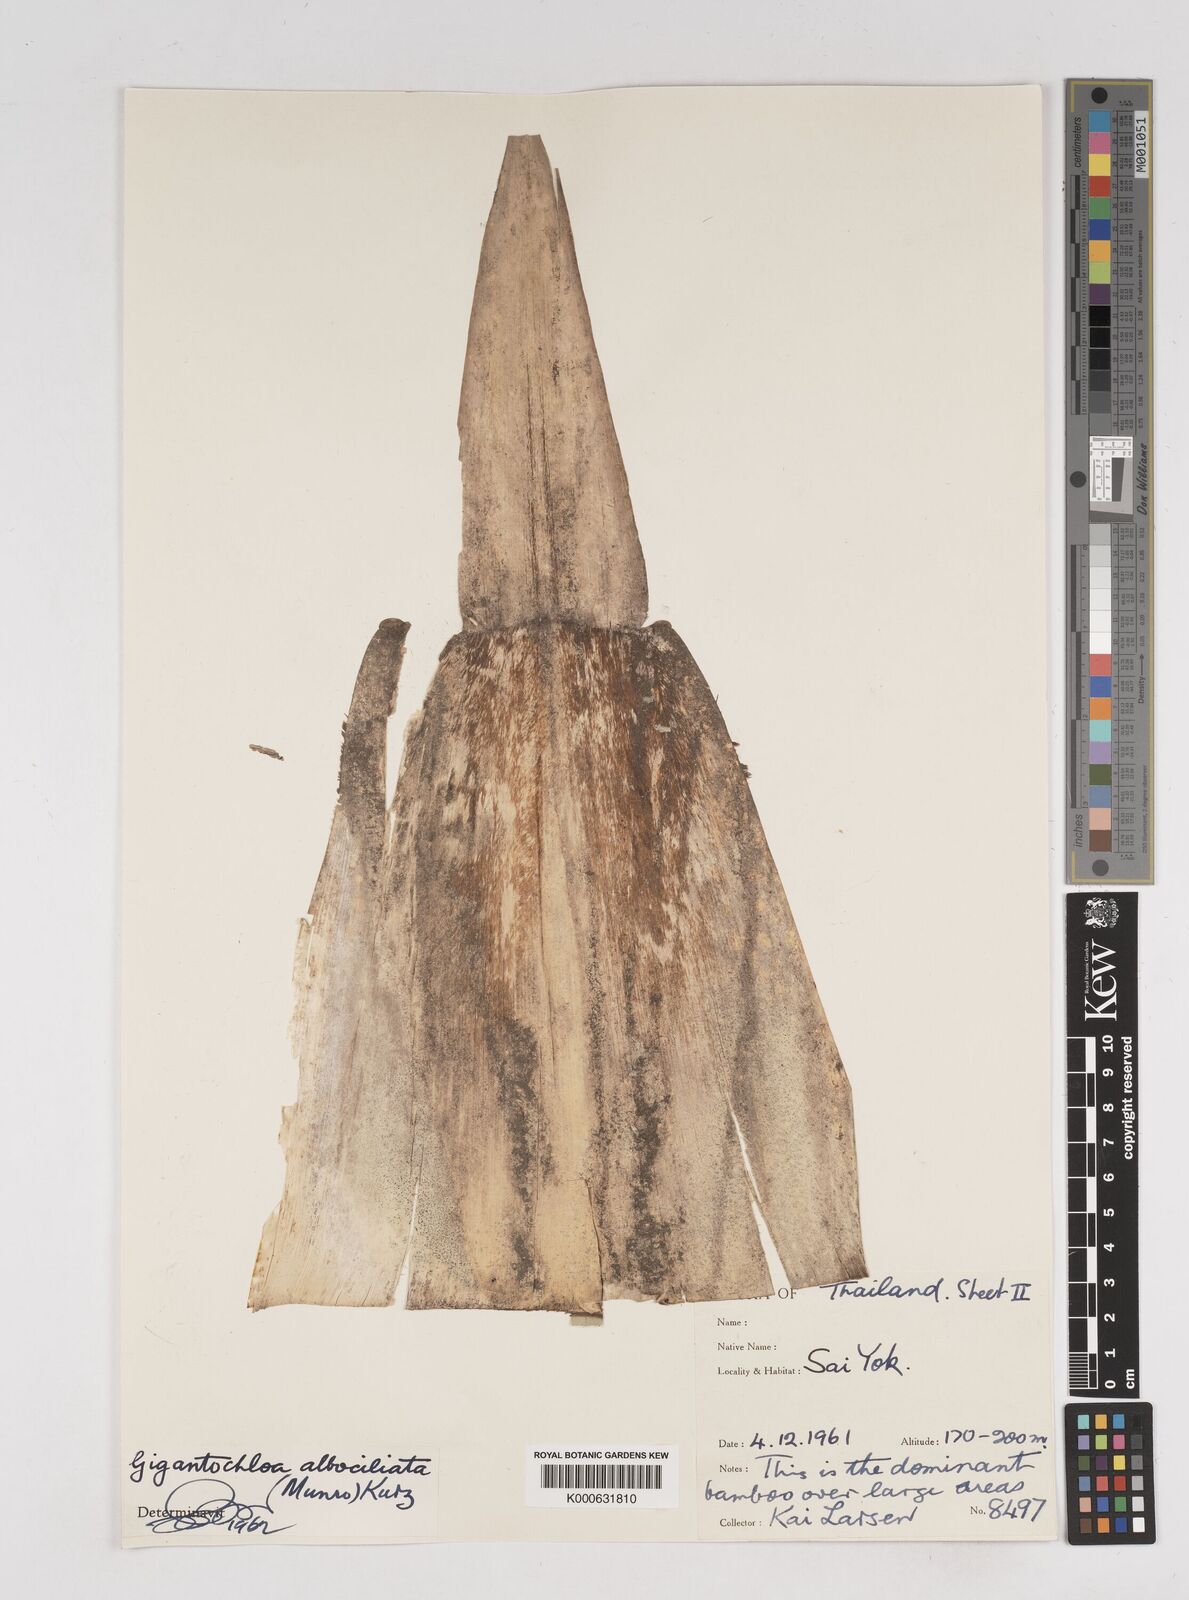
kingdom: Plantae
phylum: Tracheophyta
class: Liliopsida
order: Poales
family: Poaceae
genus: Gigantochloa
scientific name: Gigantochloa
